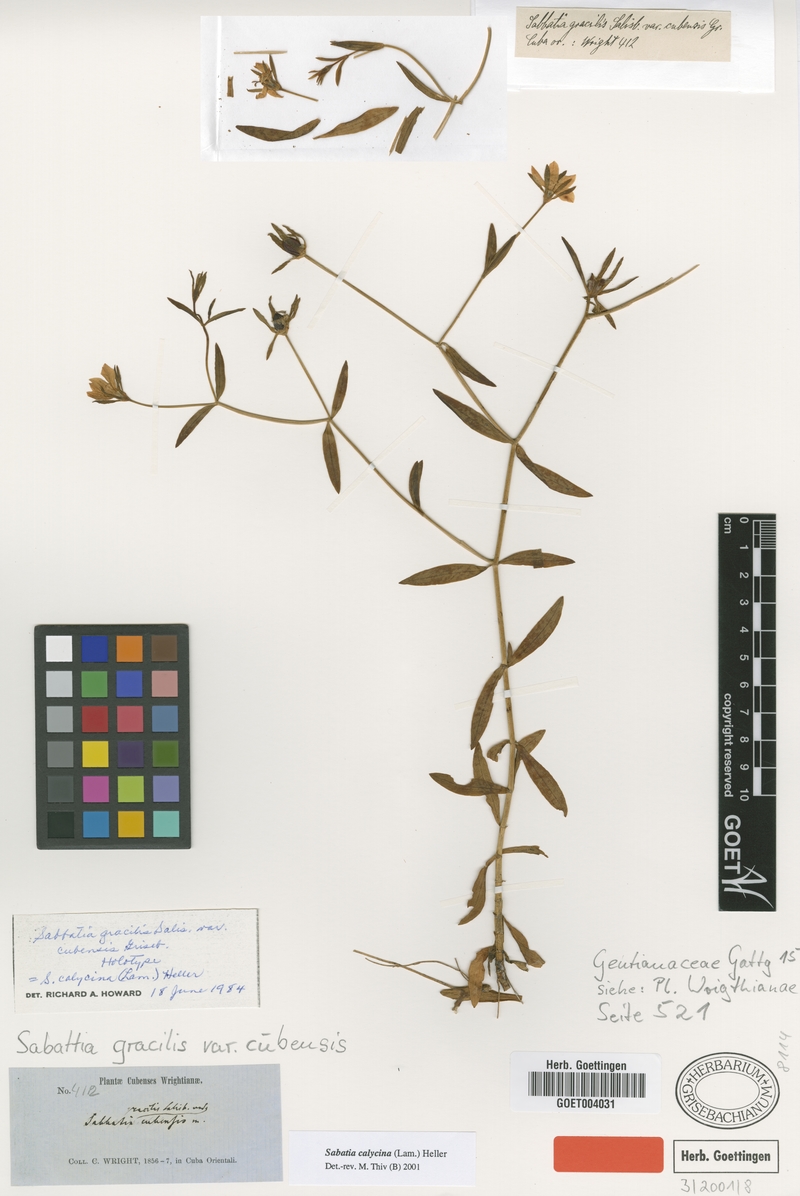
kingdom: Plantae
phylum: Tracheophyta
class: Magnoliopsida
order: Gentianales
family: Gentianaceae
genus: Sabatia
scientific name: Sabatia calycina
